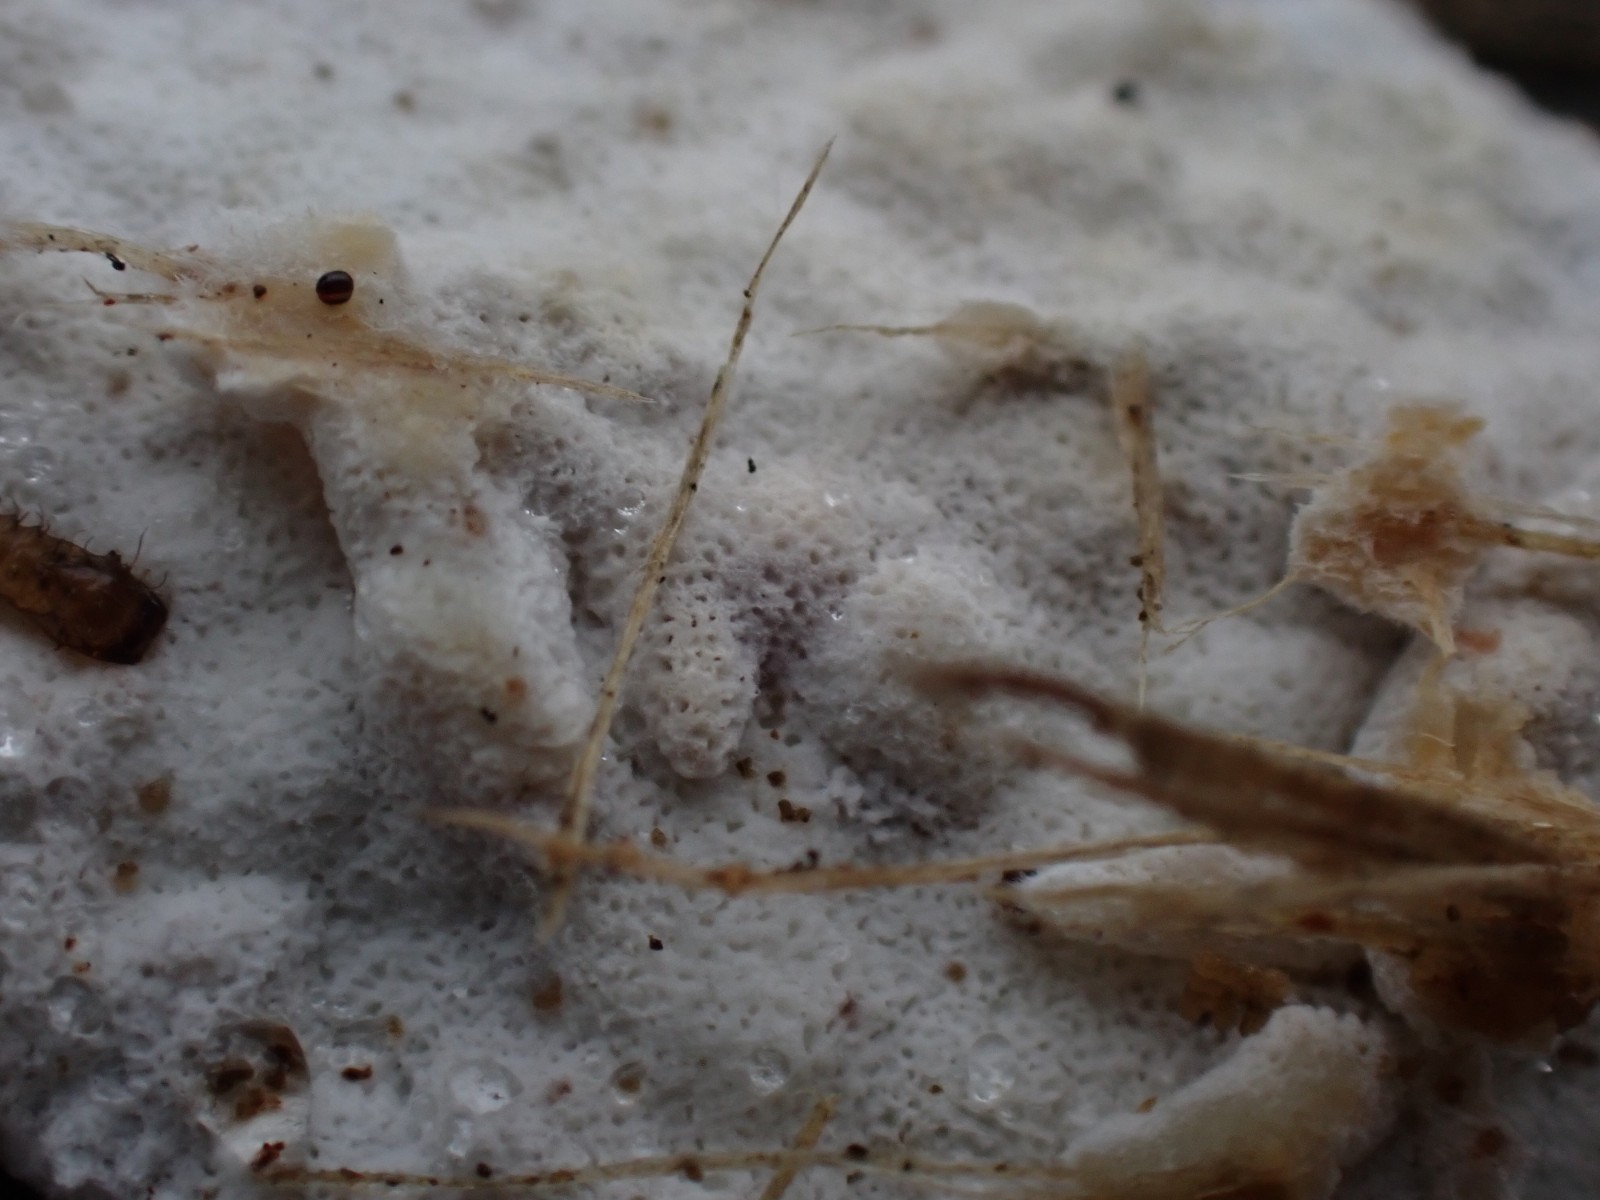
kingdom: Fungi
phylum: Basidiomycota
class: Agaricomycetes
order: Polyporales
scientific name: Polyporales
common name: poresvampordenen
